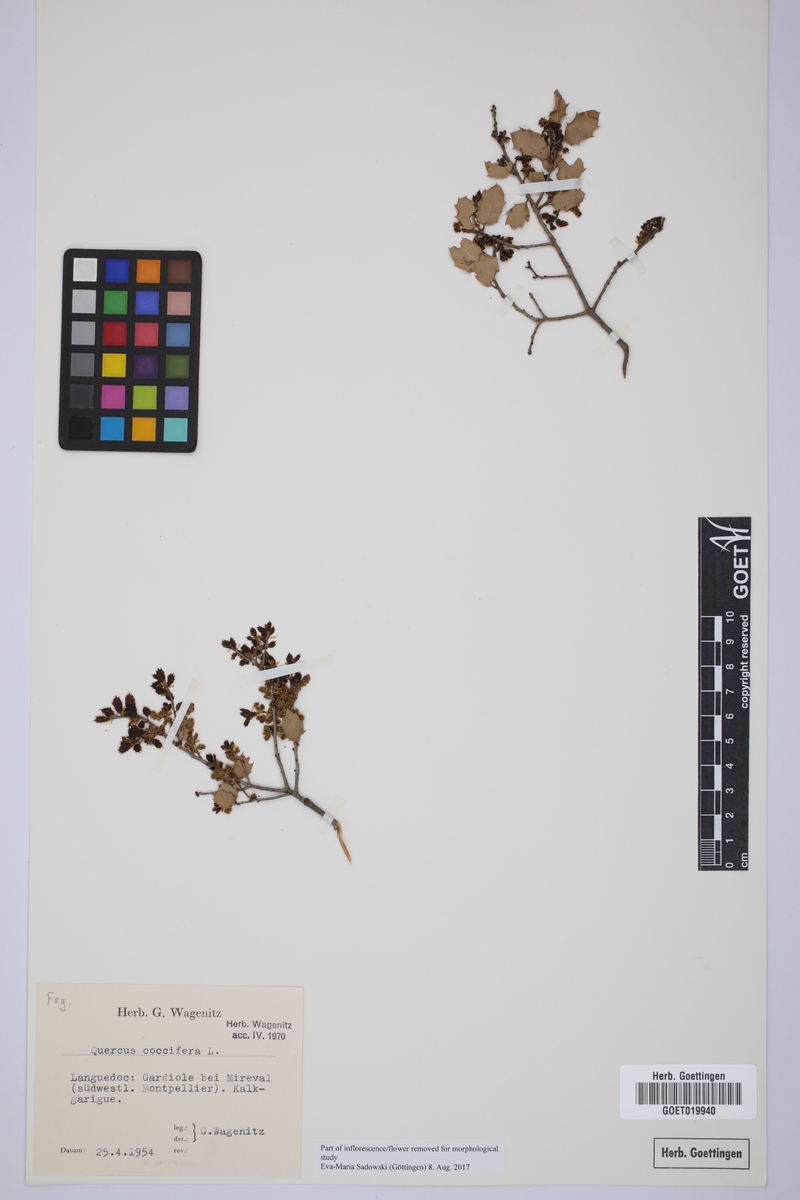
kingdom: Plantae
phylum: Tracheophyta
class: Magnoliopsida
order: Fagales
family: Fagaceae
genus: Quercus
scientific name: Quercus coccifera
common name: Kermes oak
